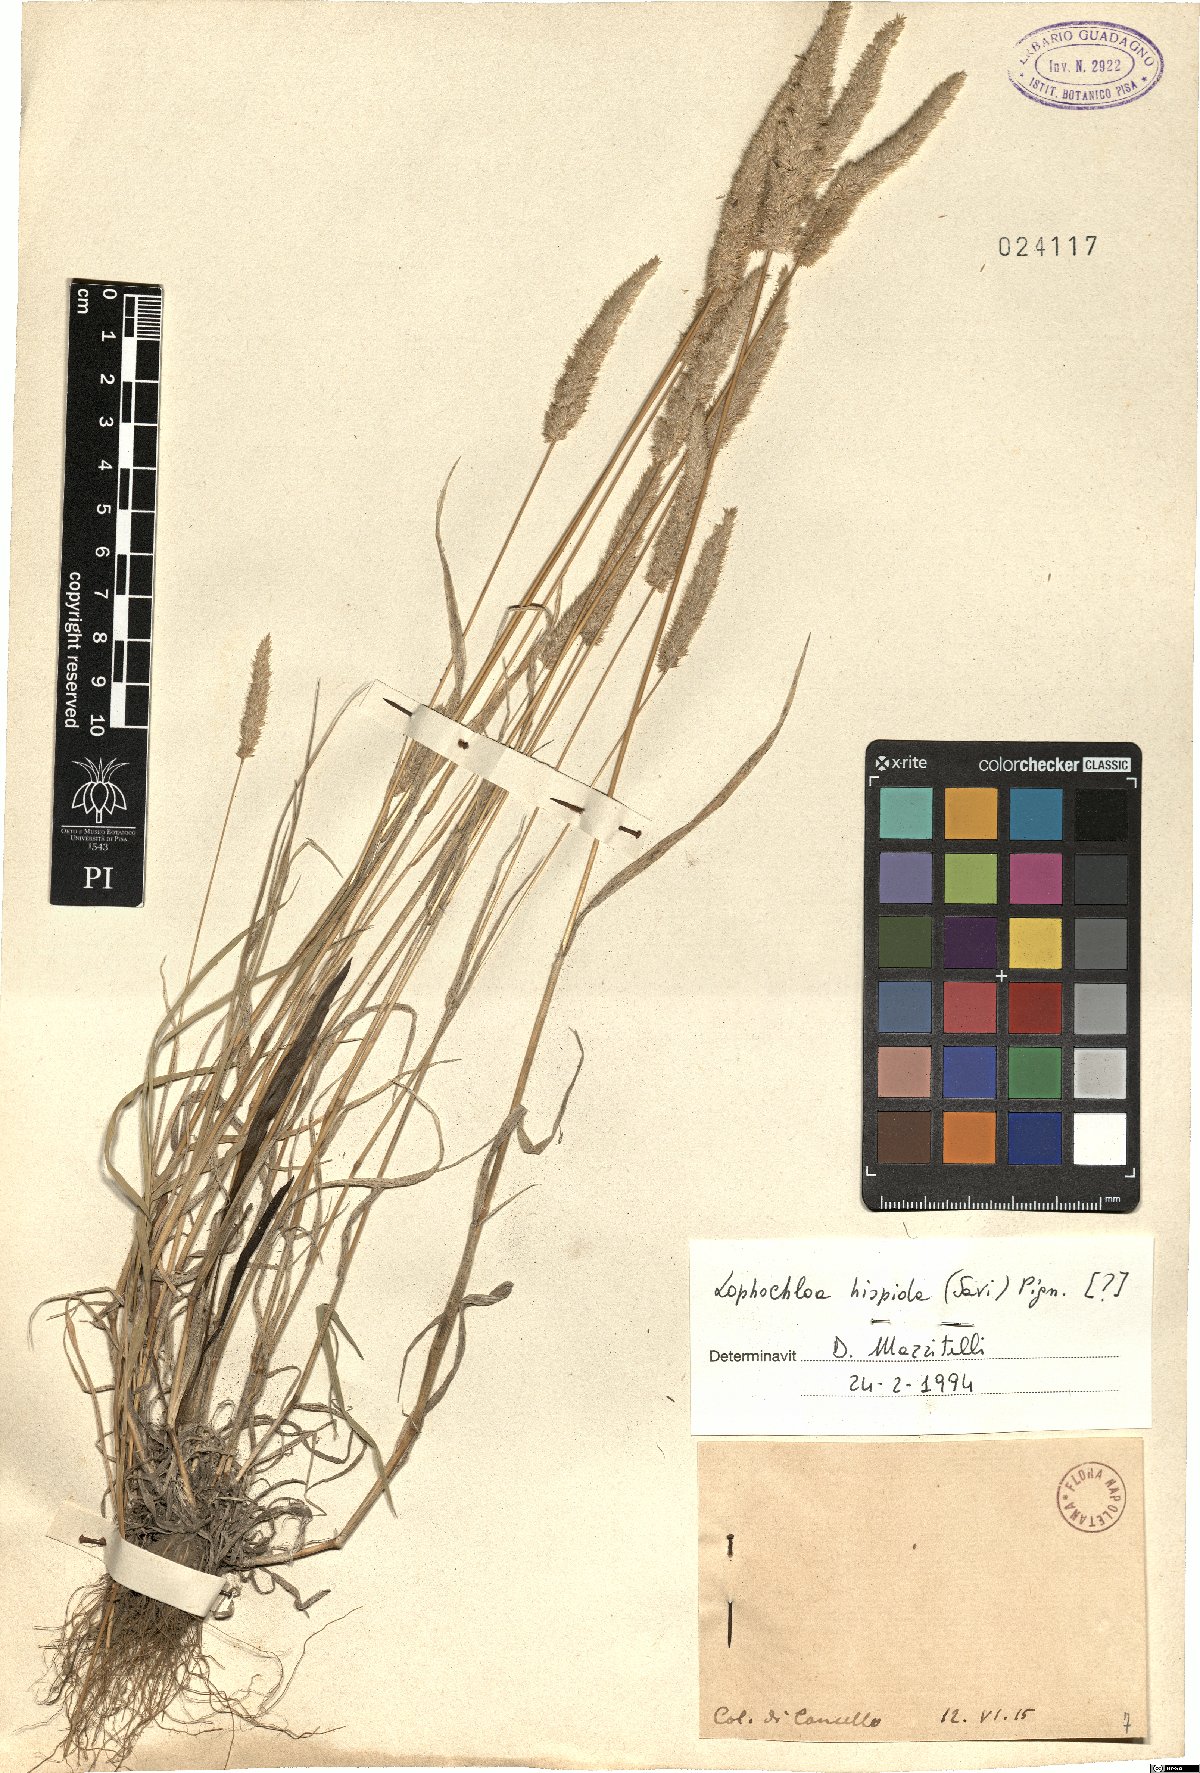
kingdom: Plantae
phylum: Tracheophyta
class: Liliopsida
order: Poales
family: Poaceae
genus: Rostraria
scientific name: Rostraria hispida
